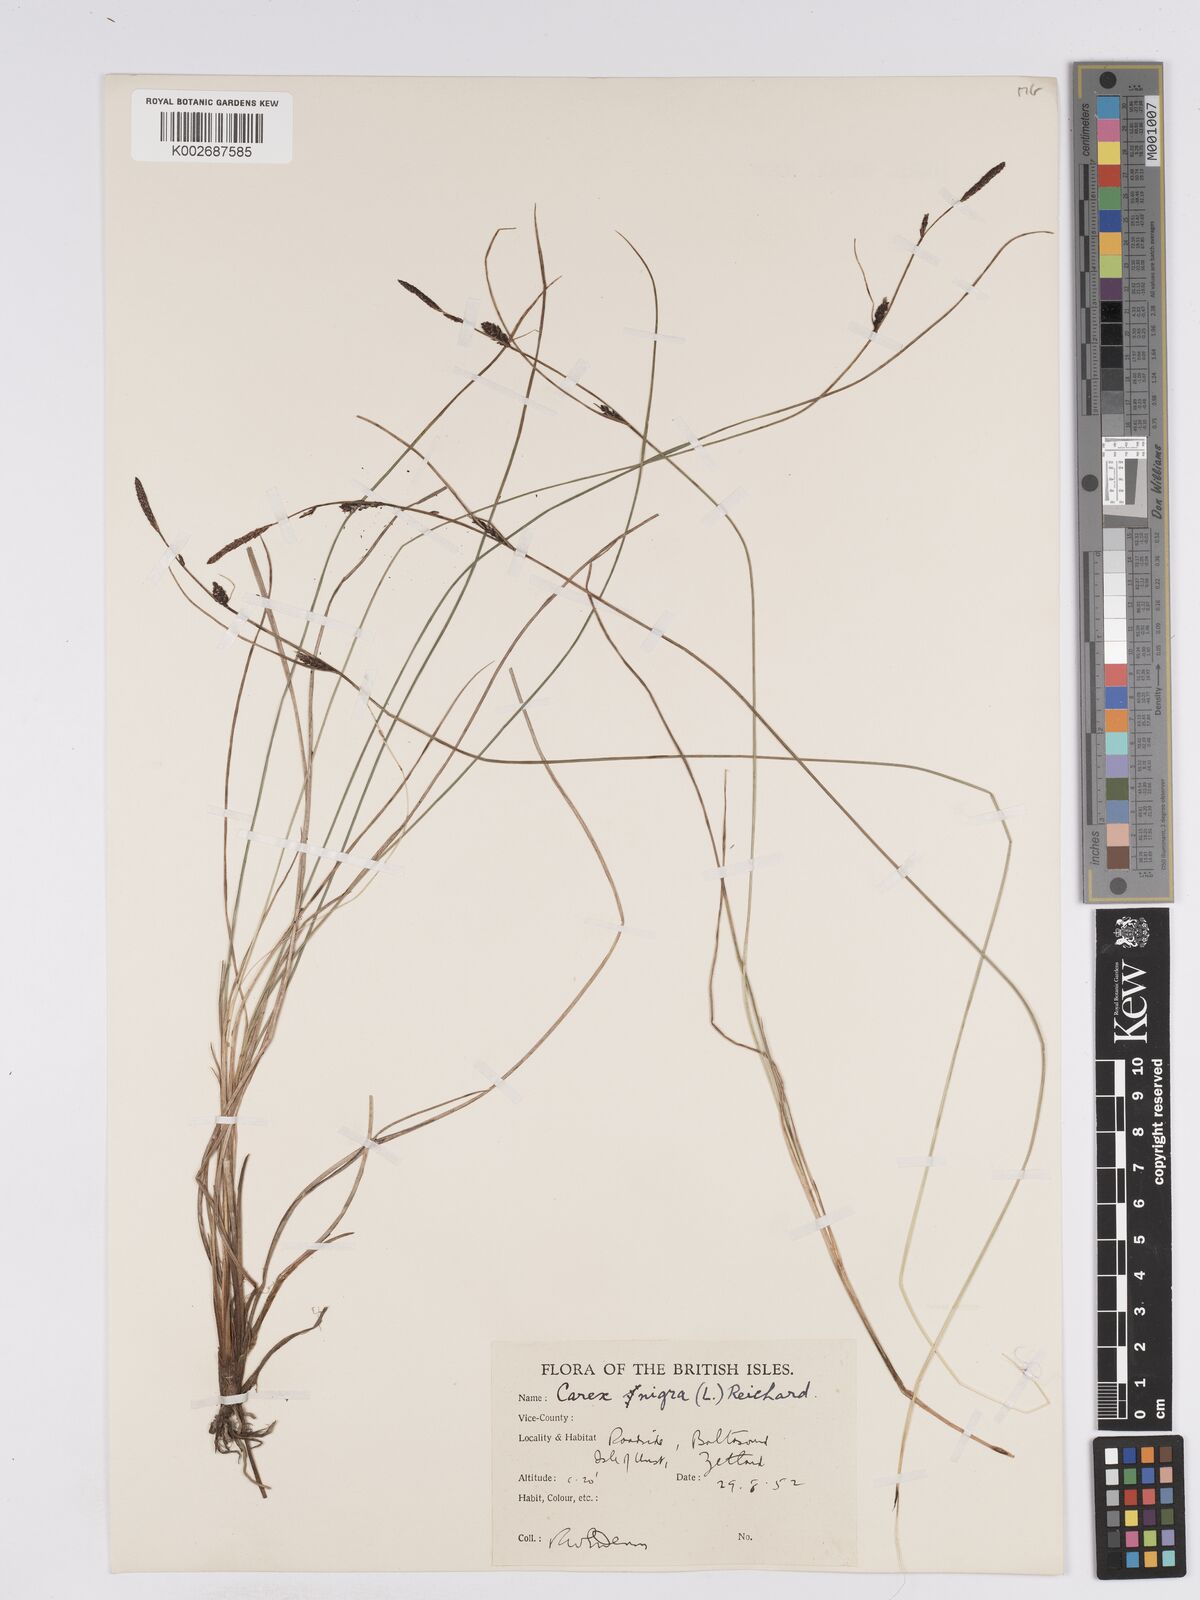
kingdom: Plantae
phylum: Tracheophyta
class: Liliopsida
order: Poales
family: Cyperaceae
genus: Carex
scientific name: Carex nigra
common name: Common sedge
